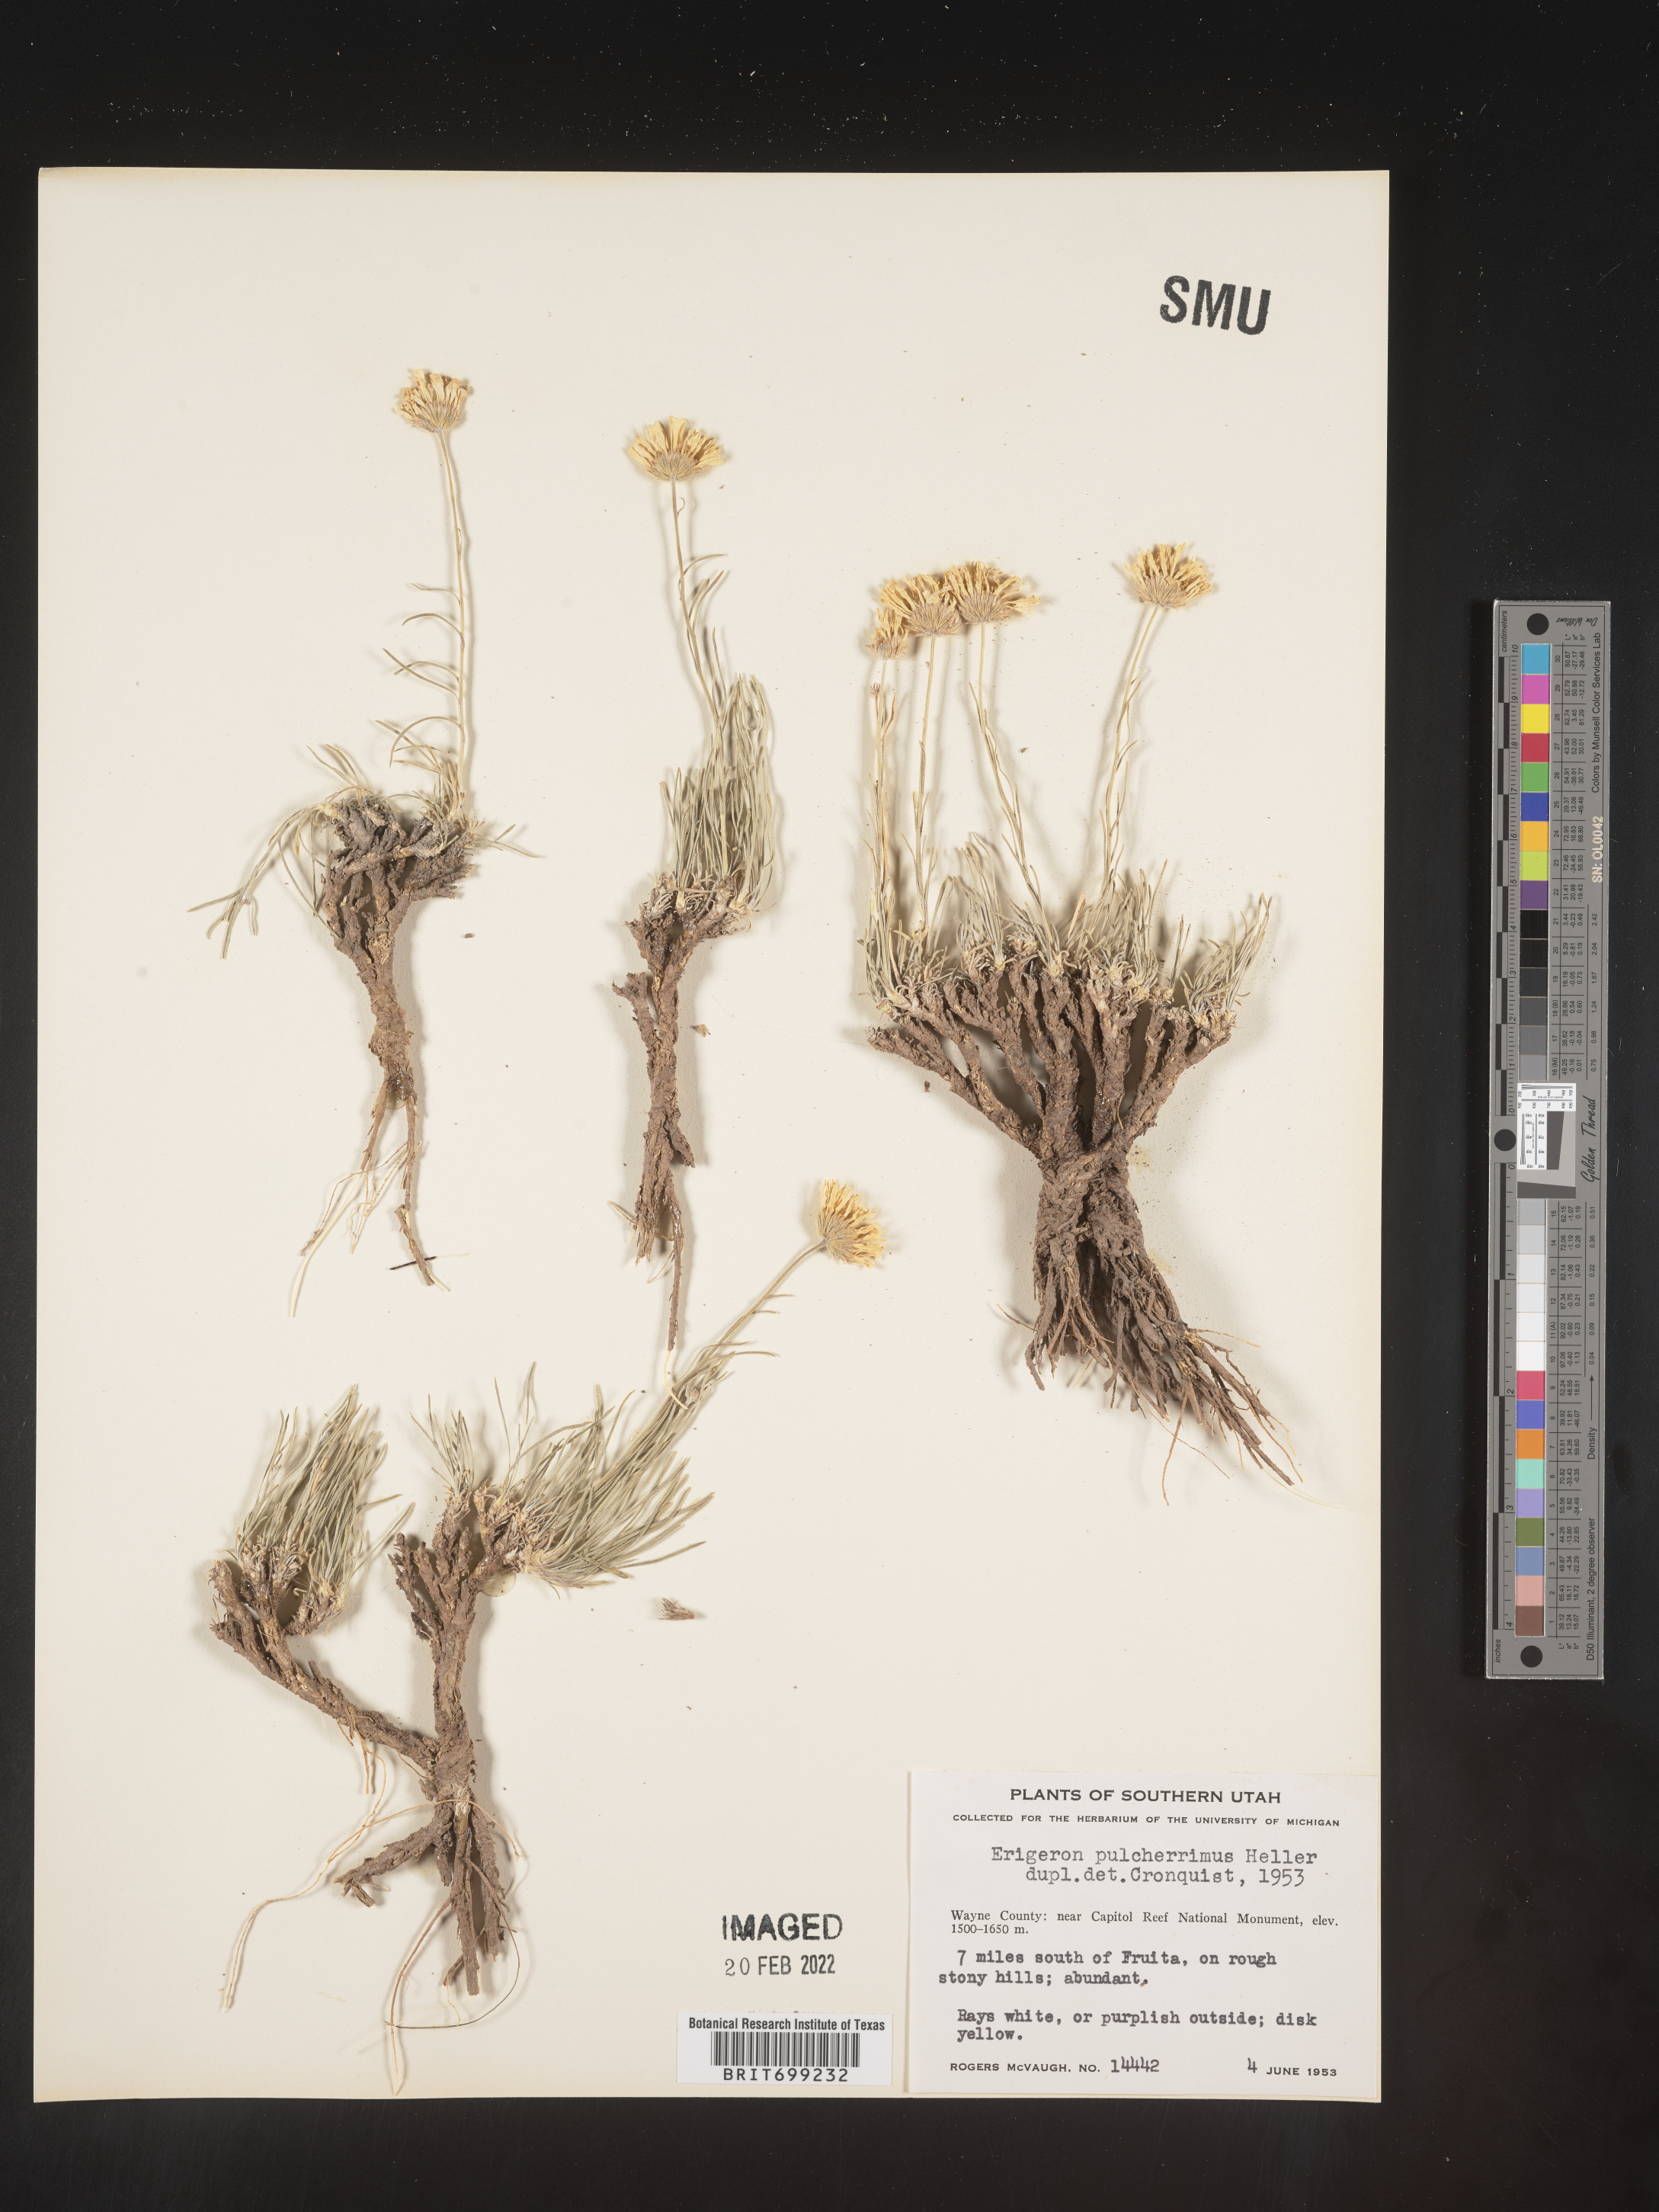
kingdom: Plantae
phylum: Tracheophyta
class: Magnoliopsida
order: Asterales
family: Asteraceae
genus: Erigeron
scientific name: Erigeron pulcherrimus
